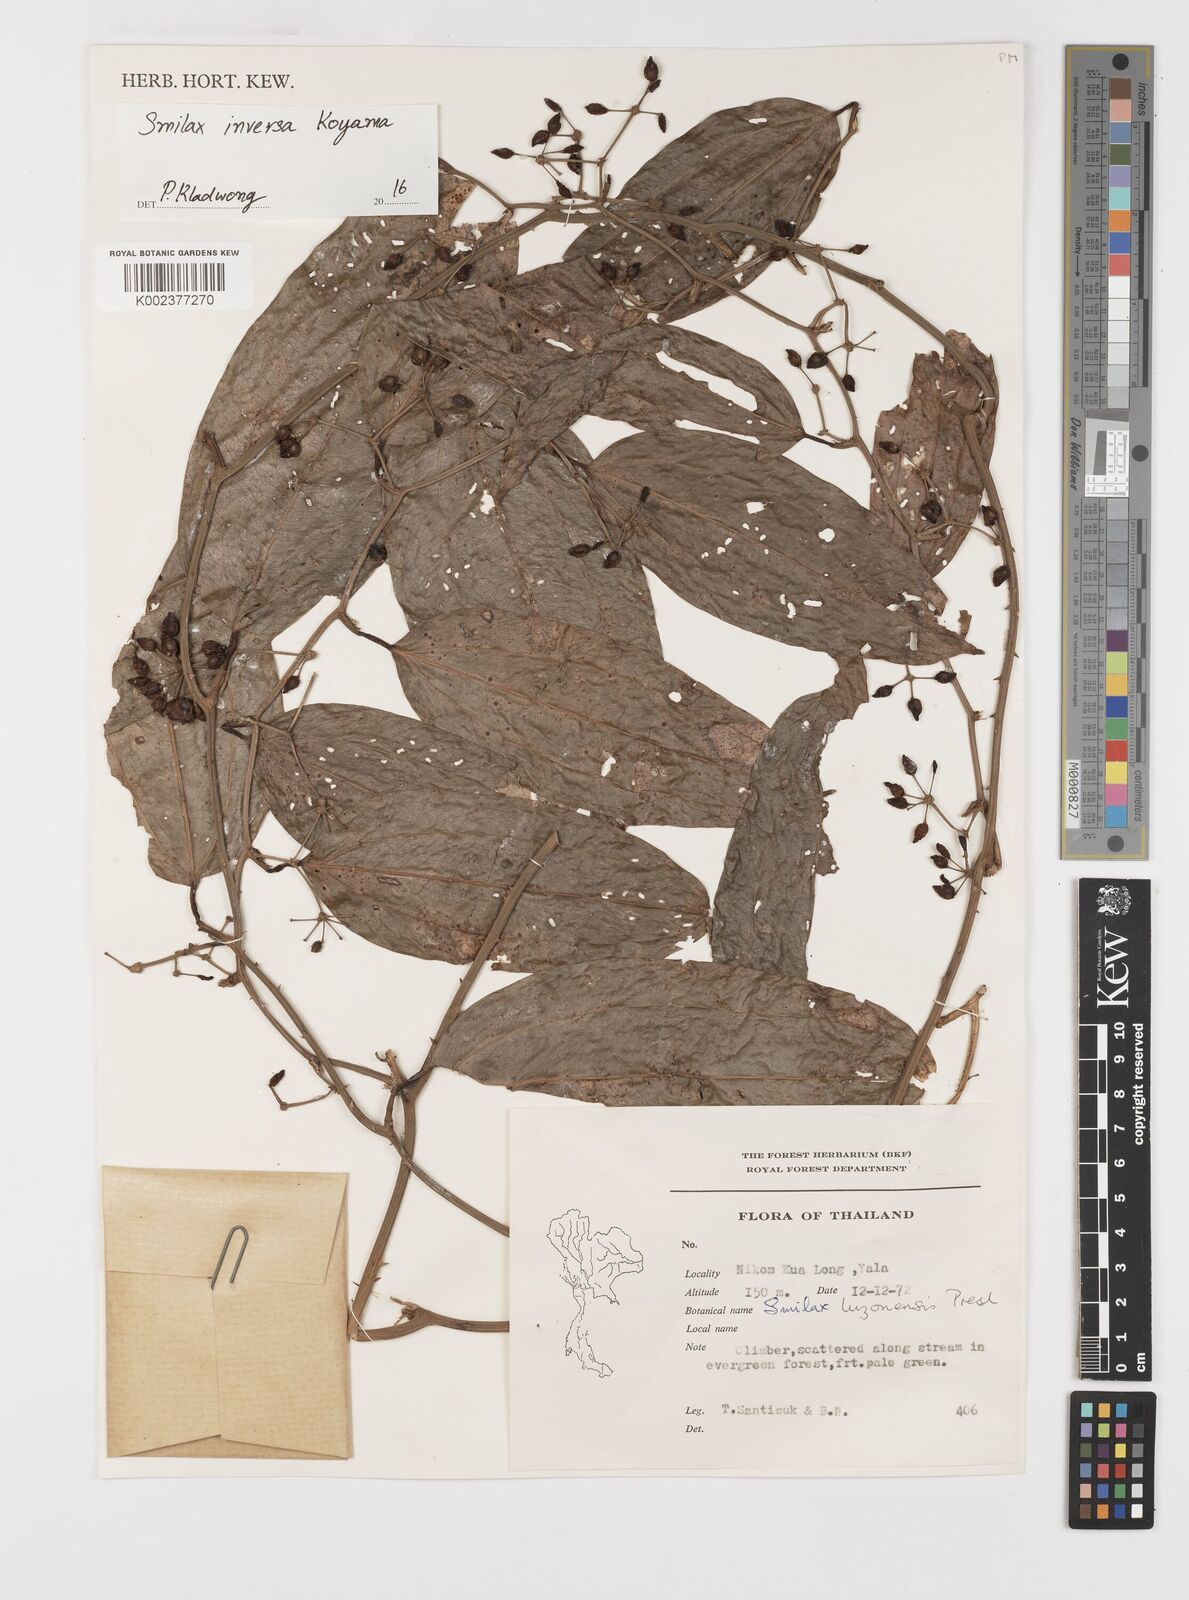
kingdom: Plantae
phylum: Tracheophyta
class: Liliopsida
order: Liliales
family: Smilacaceae
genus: Smilax
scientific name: Smilax luzonensis
